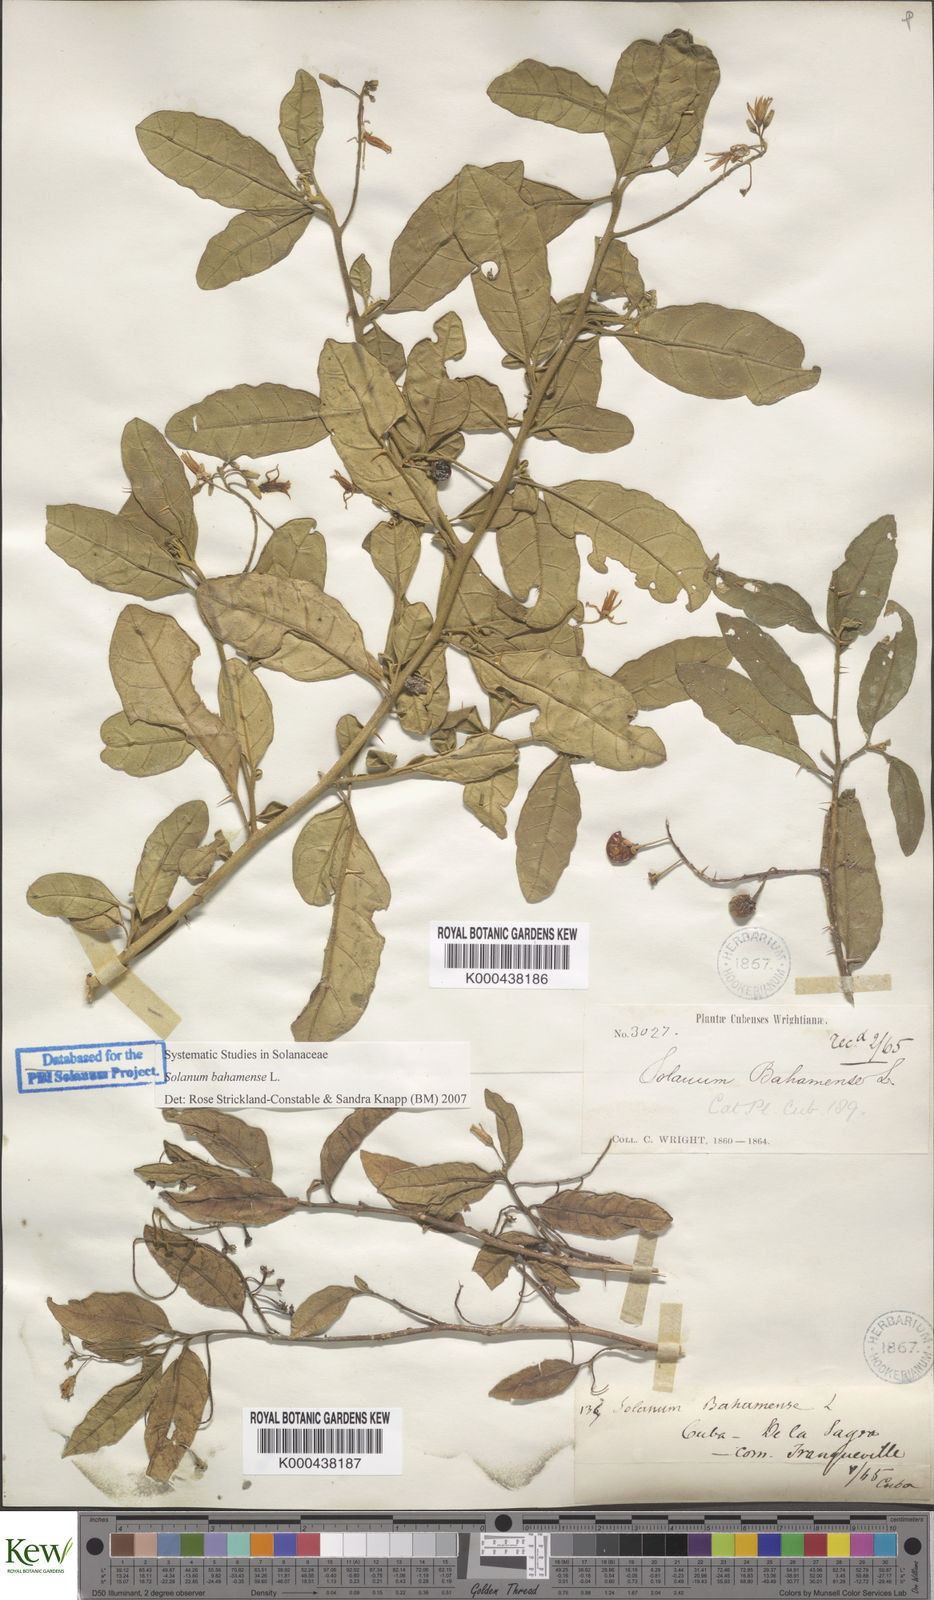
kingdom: Plantae
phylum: Tracheophyta
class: Magnoliopsida
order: Solanales
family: Solanaceae
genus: Solanum
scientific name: Solanum bahamense
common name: Canker-berry
